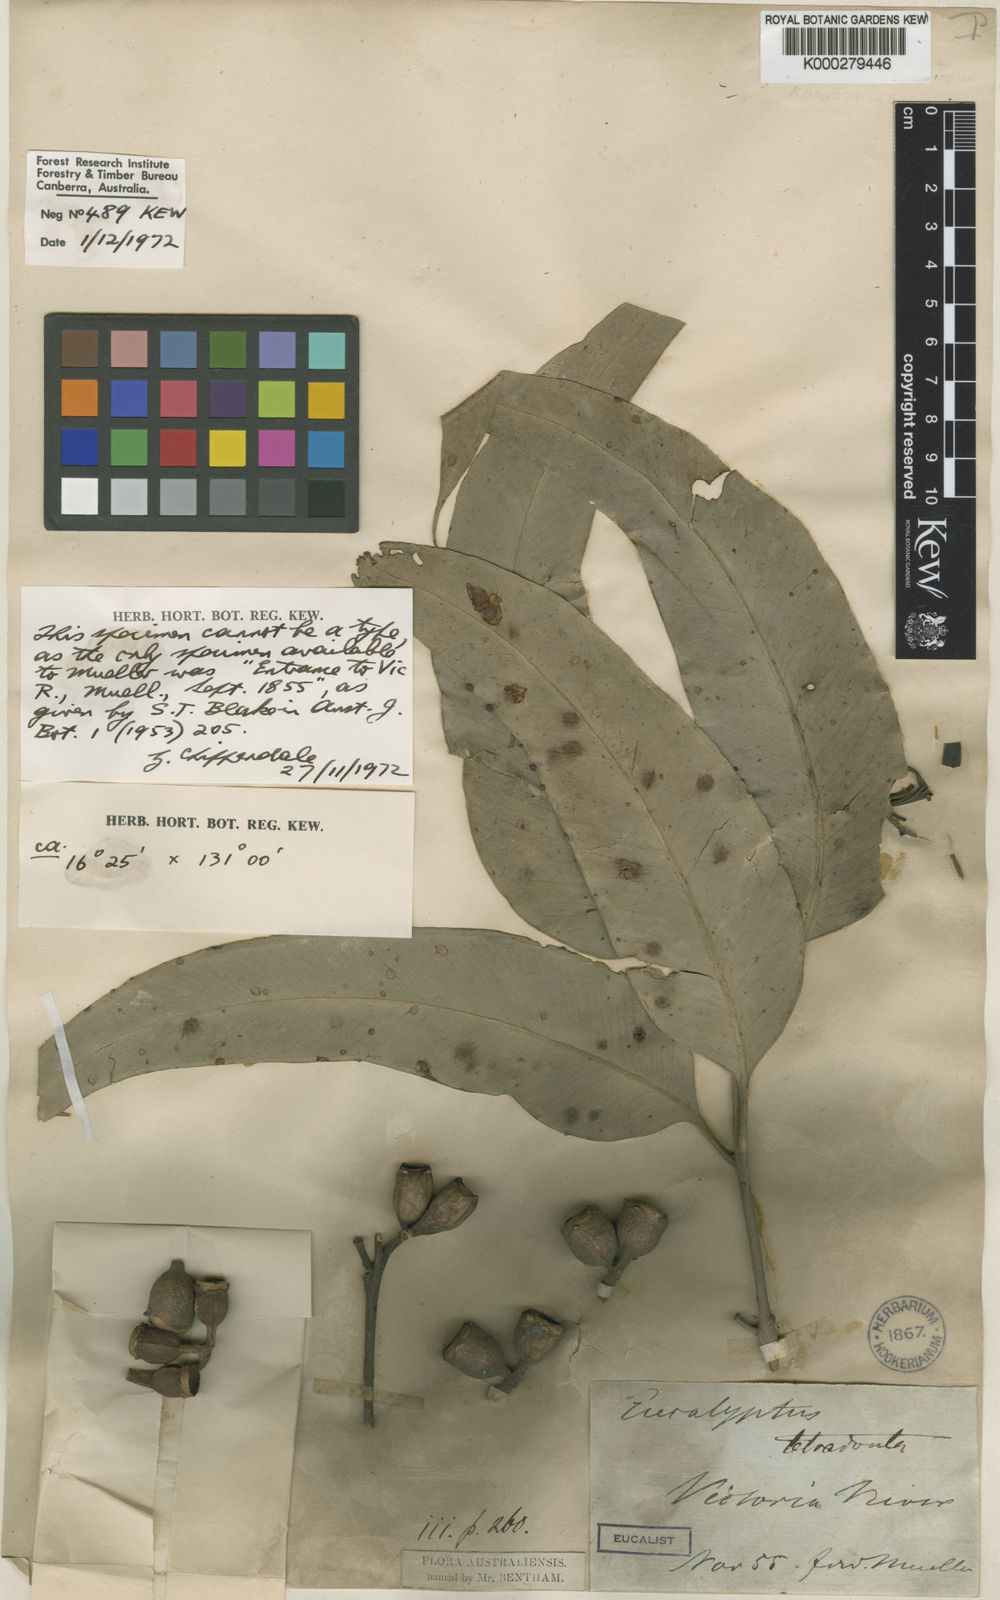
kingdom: Plantae
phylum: Tracheophyta
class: Magnoliopsida
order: Myrtales
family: Myrtaceae
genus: Eucalyptus
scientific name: Eucalyptus tetrodonta
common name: Darwin-stringybark
